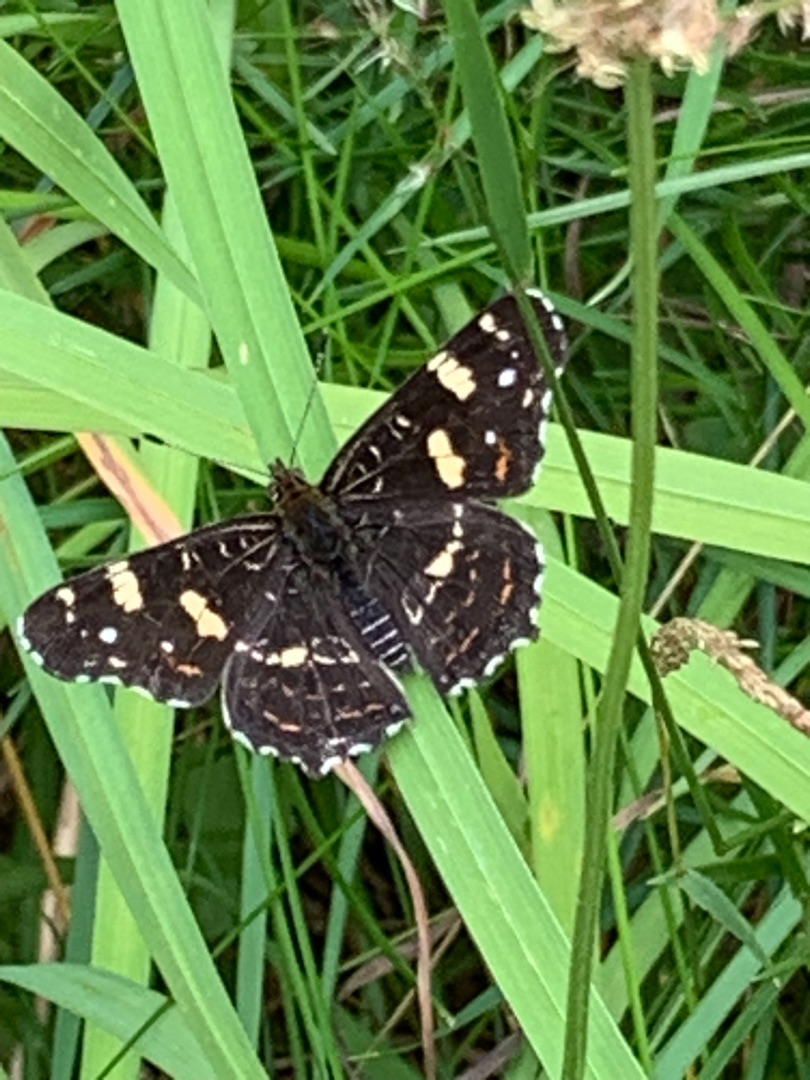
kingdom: Animalia
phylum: Arthropoda
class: Insecta
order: Lepidoptera
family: Nymphalidae
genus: Araschnia
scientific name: Araschnia levana
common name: Nældesommerfugl
